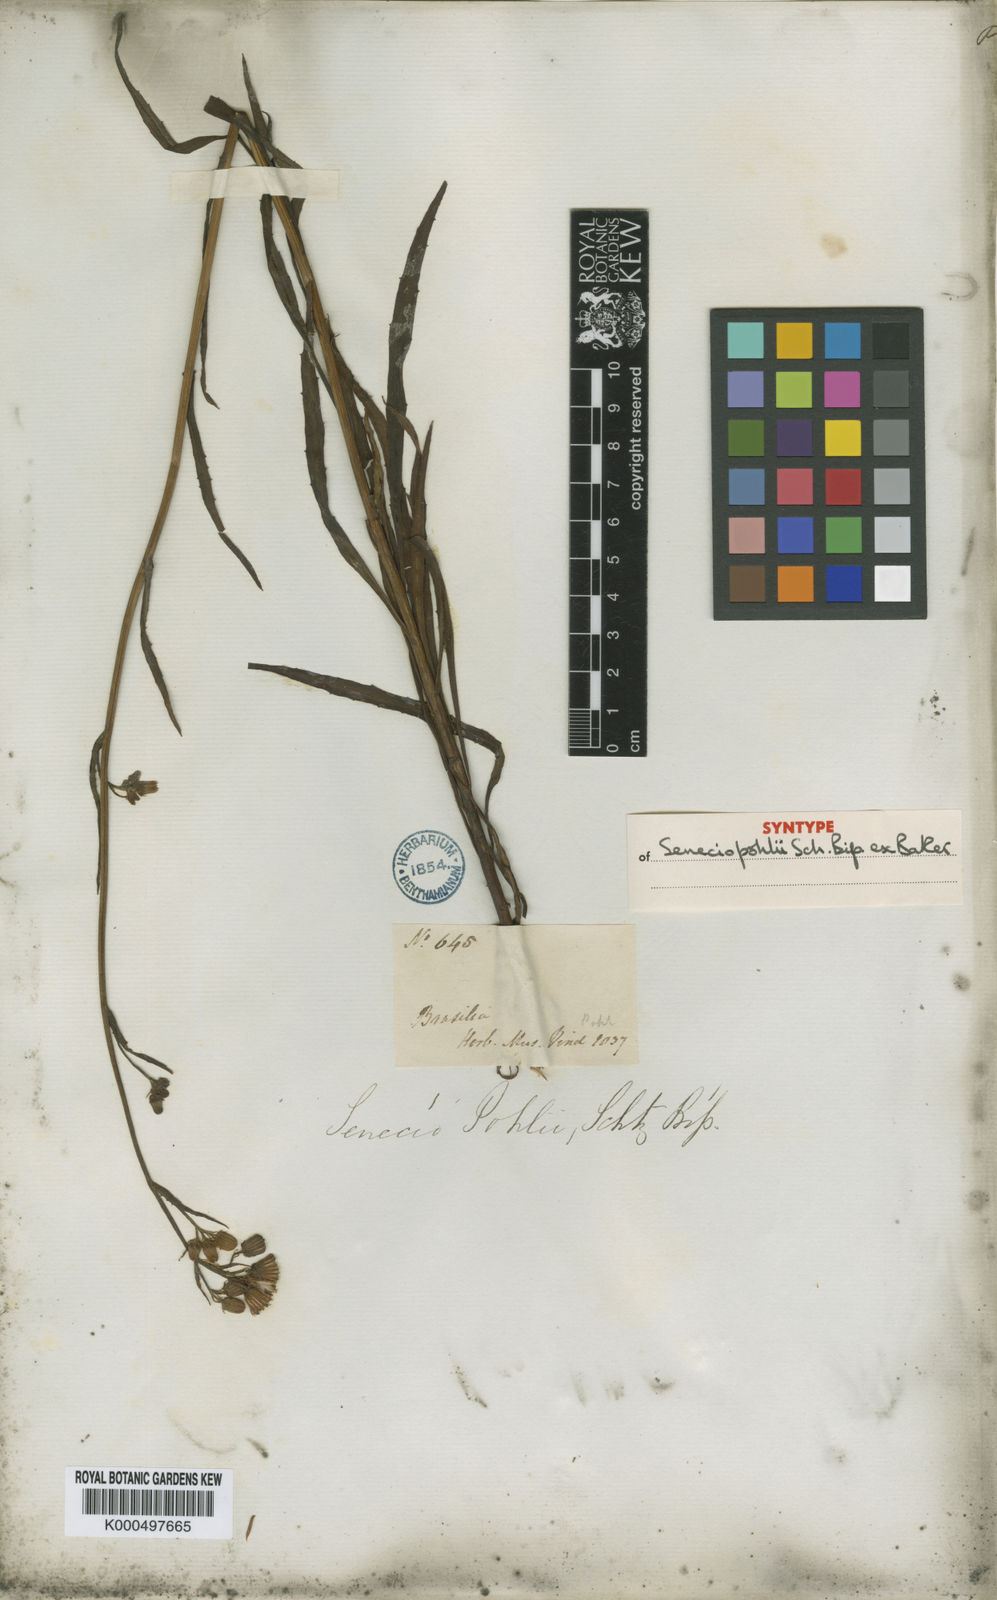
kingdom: Plantae
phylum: Tracheophyta
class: Magnoliopsida
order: Asterales
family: Asteraceae
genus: Senecio
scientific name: Senecio
